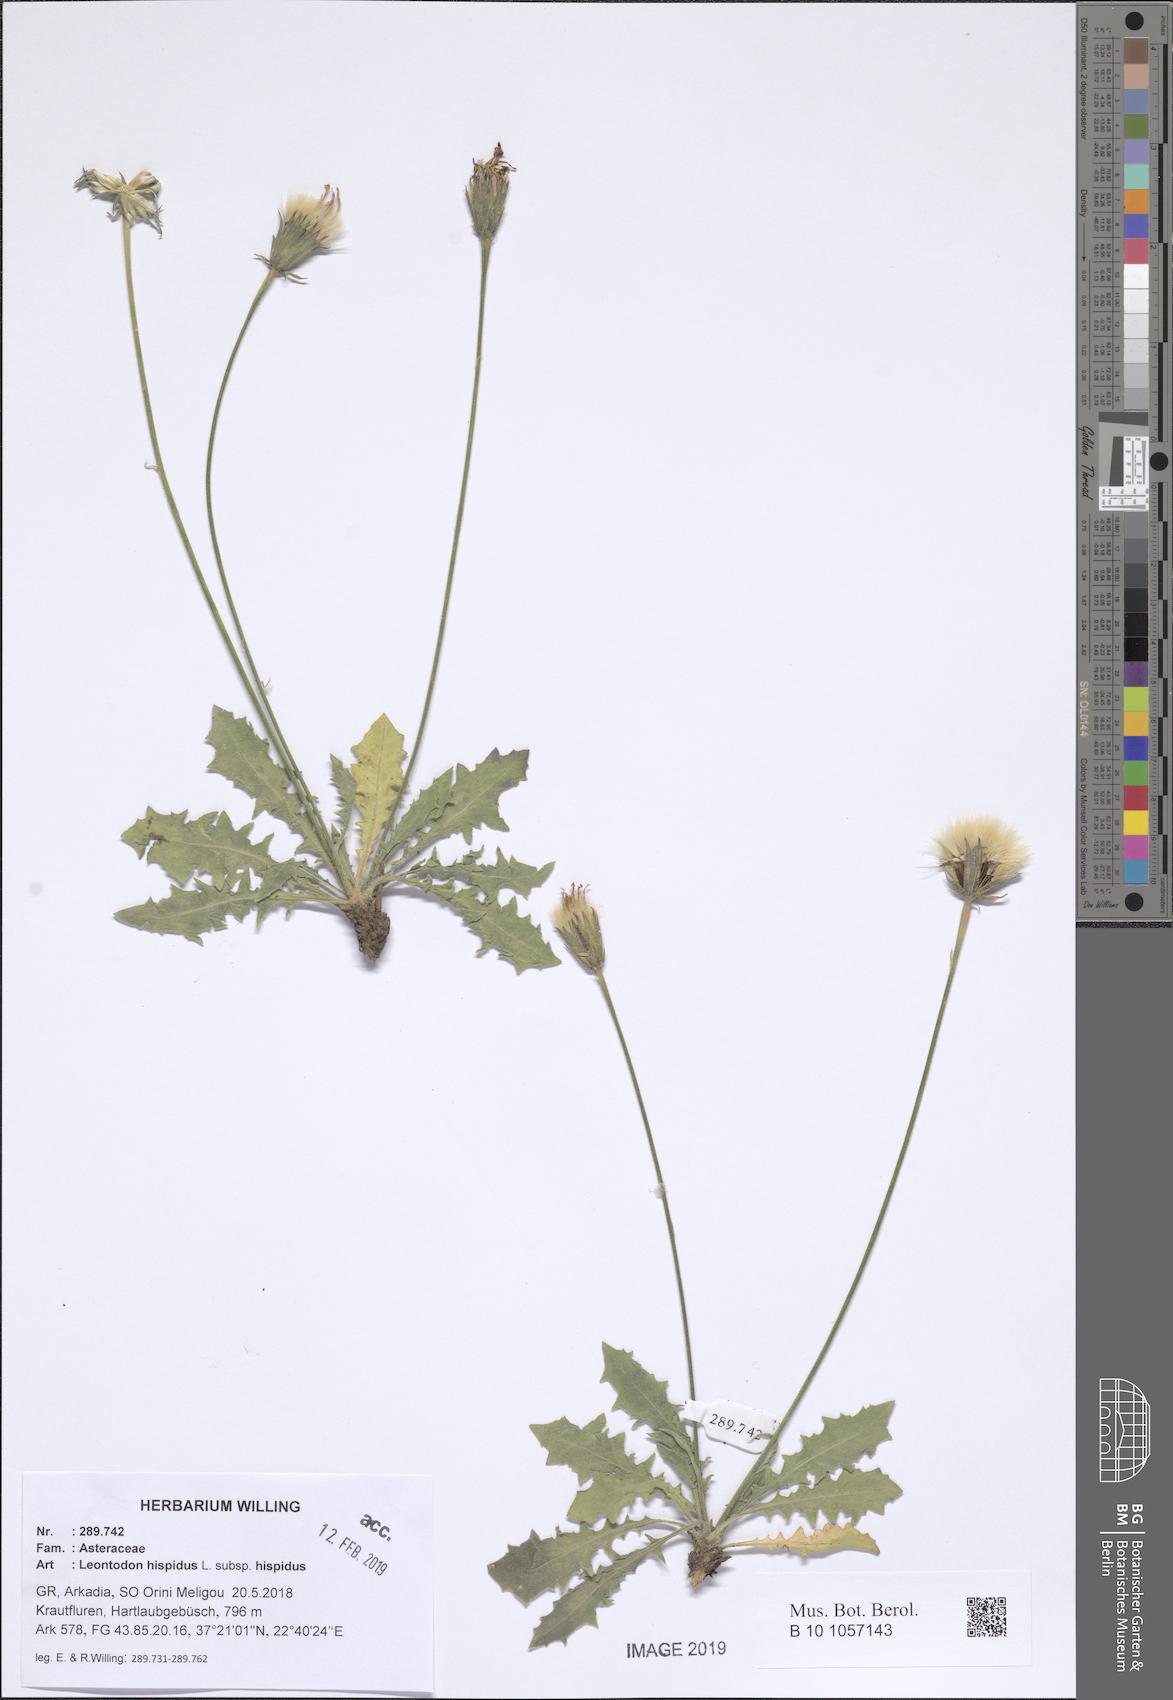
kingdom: Plantae
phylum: Tracheophyta
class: Magnoliopsida
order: Asterales
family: Asteraceae
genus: Leontodon
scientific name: Leontodon hispidus
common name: Rough hawkbit
